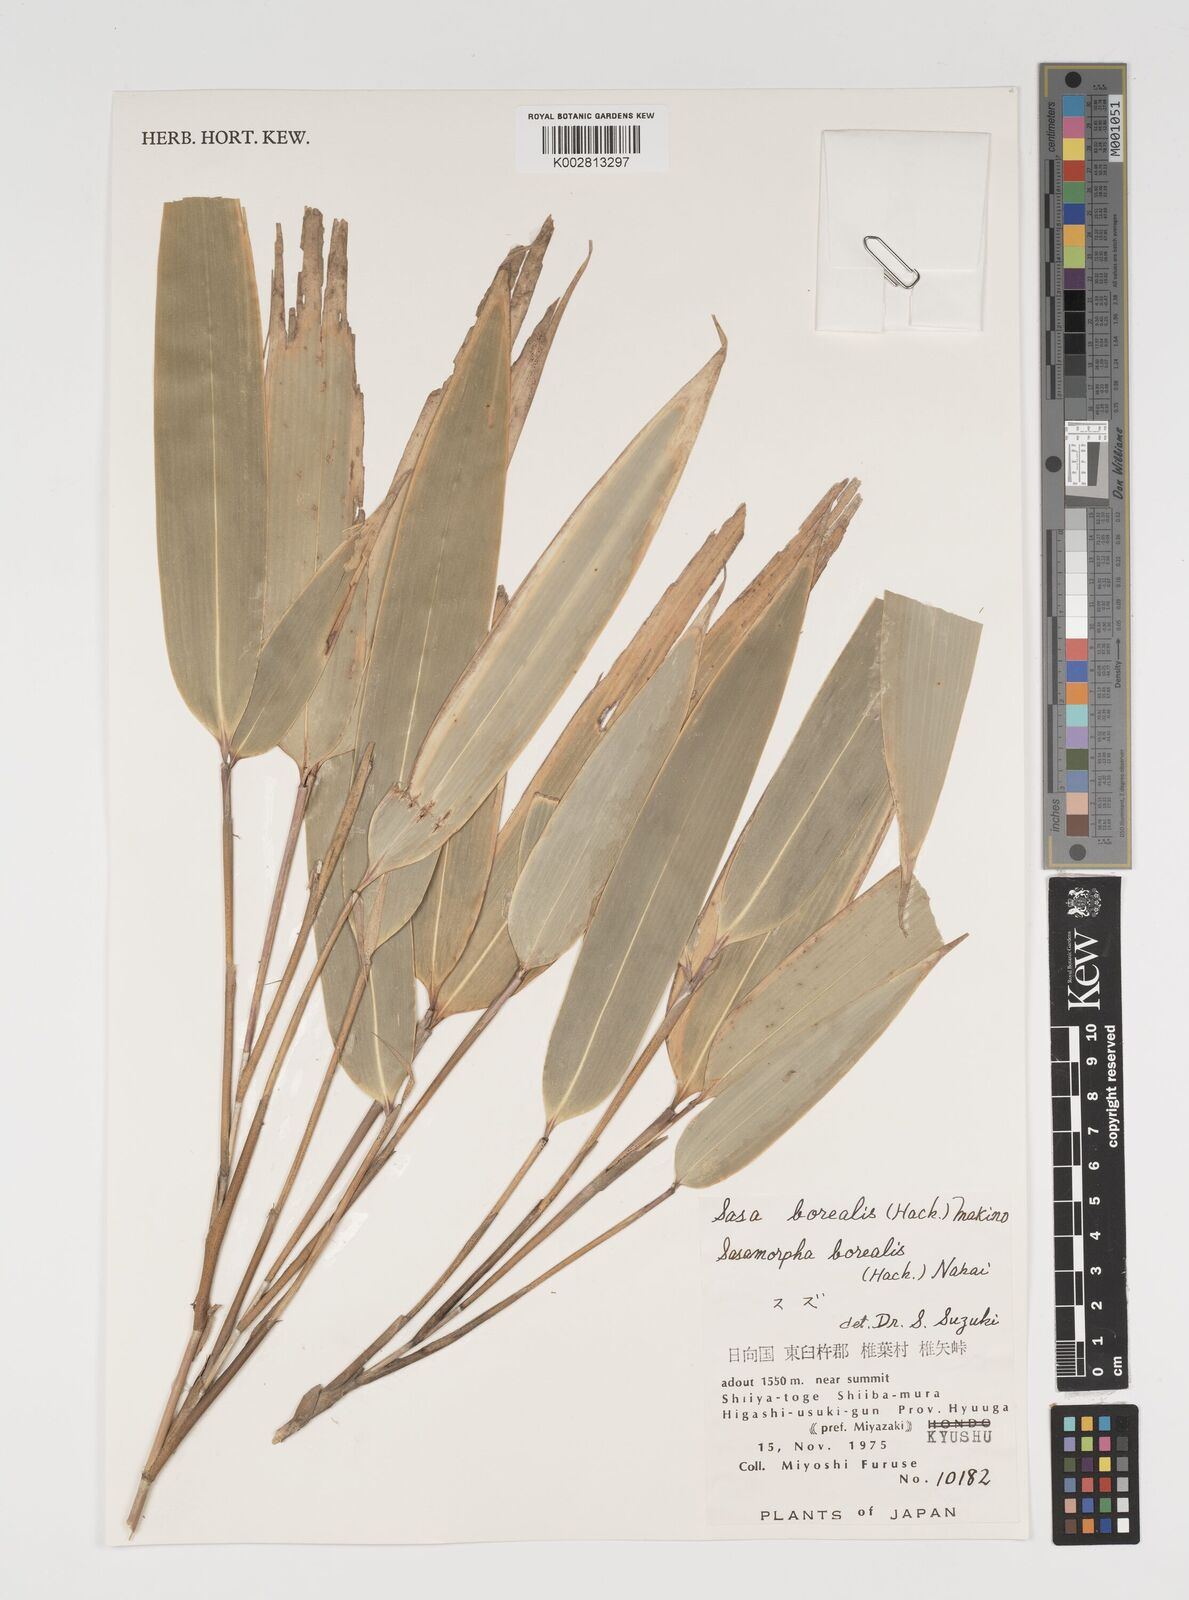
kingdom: Plantae
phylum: Tracheophyta
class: Liliopsida
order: Poales
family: Poaceae
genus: Sasamorpha
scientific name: Sasamorpha borealis
